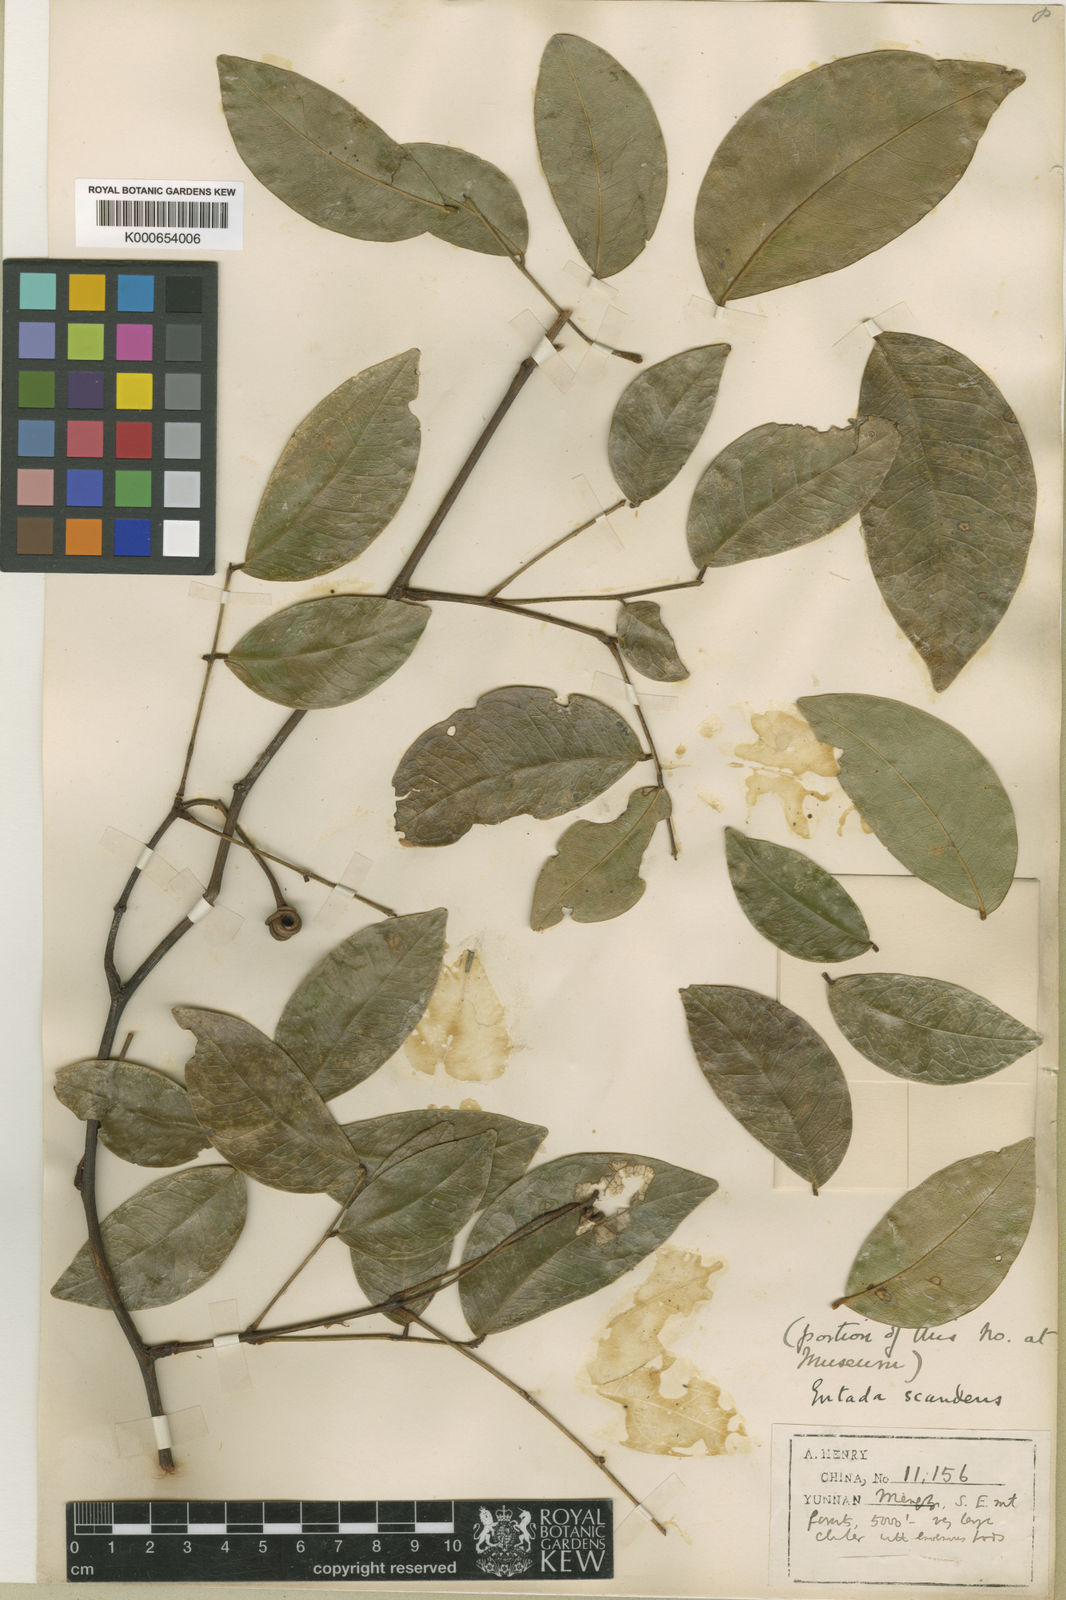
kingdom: Plantae
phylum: Tracheophyta
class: Magnoliopsida
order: Fabales
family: Fabaceae
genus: Entada
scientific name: Entada phaseoloides
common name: Matchbox-bean
